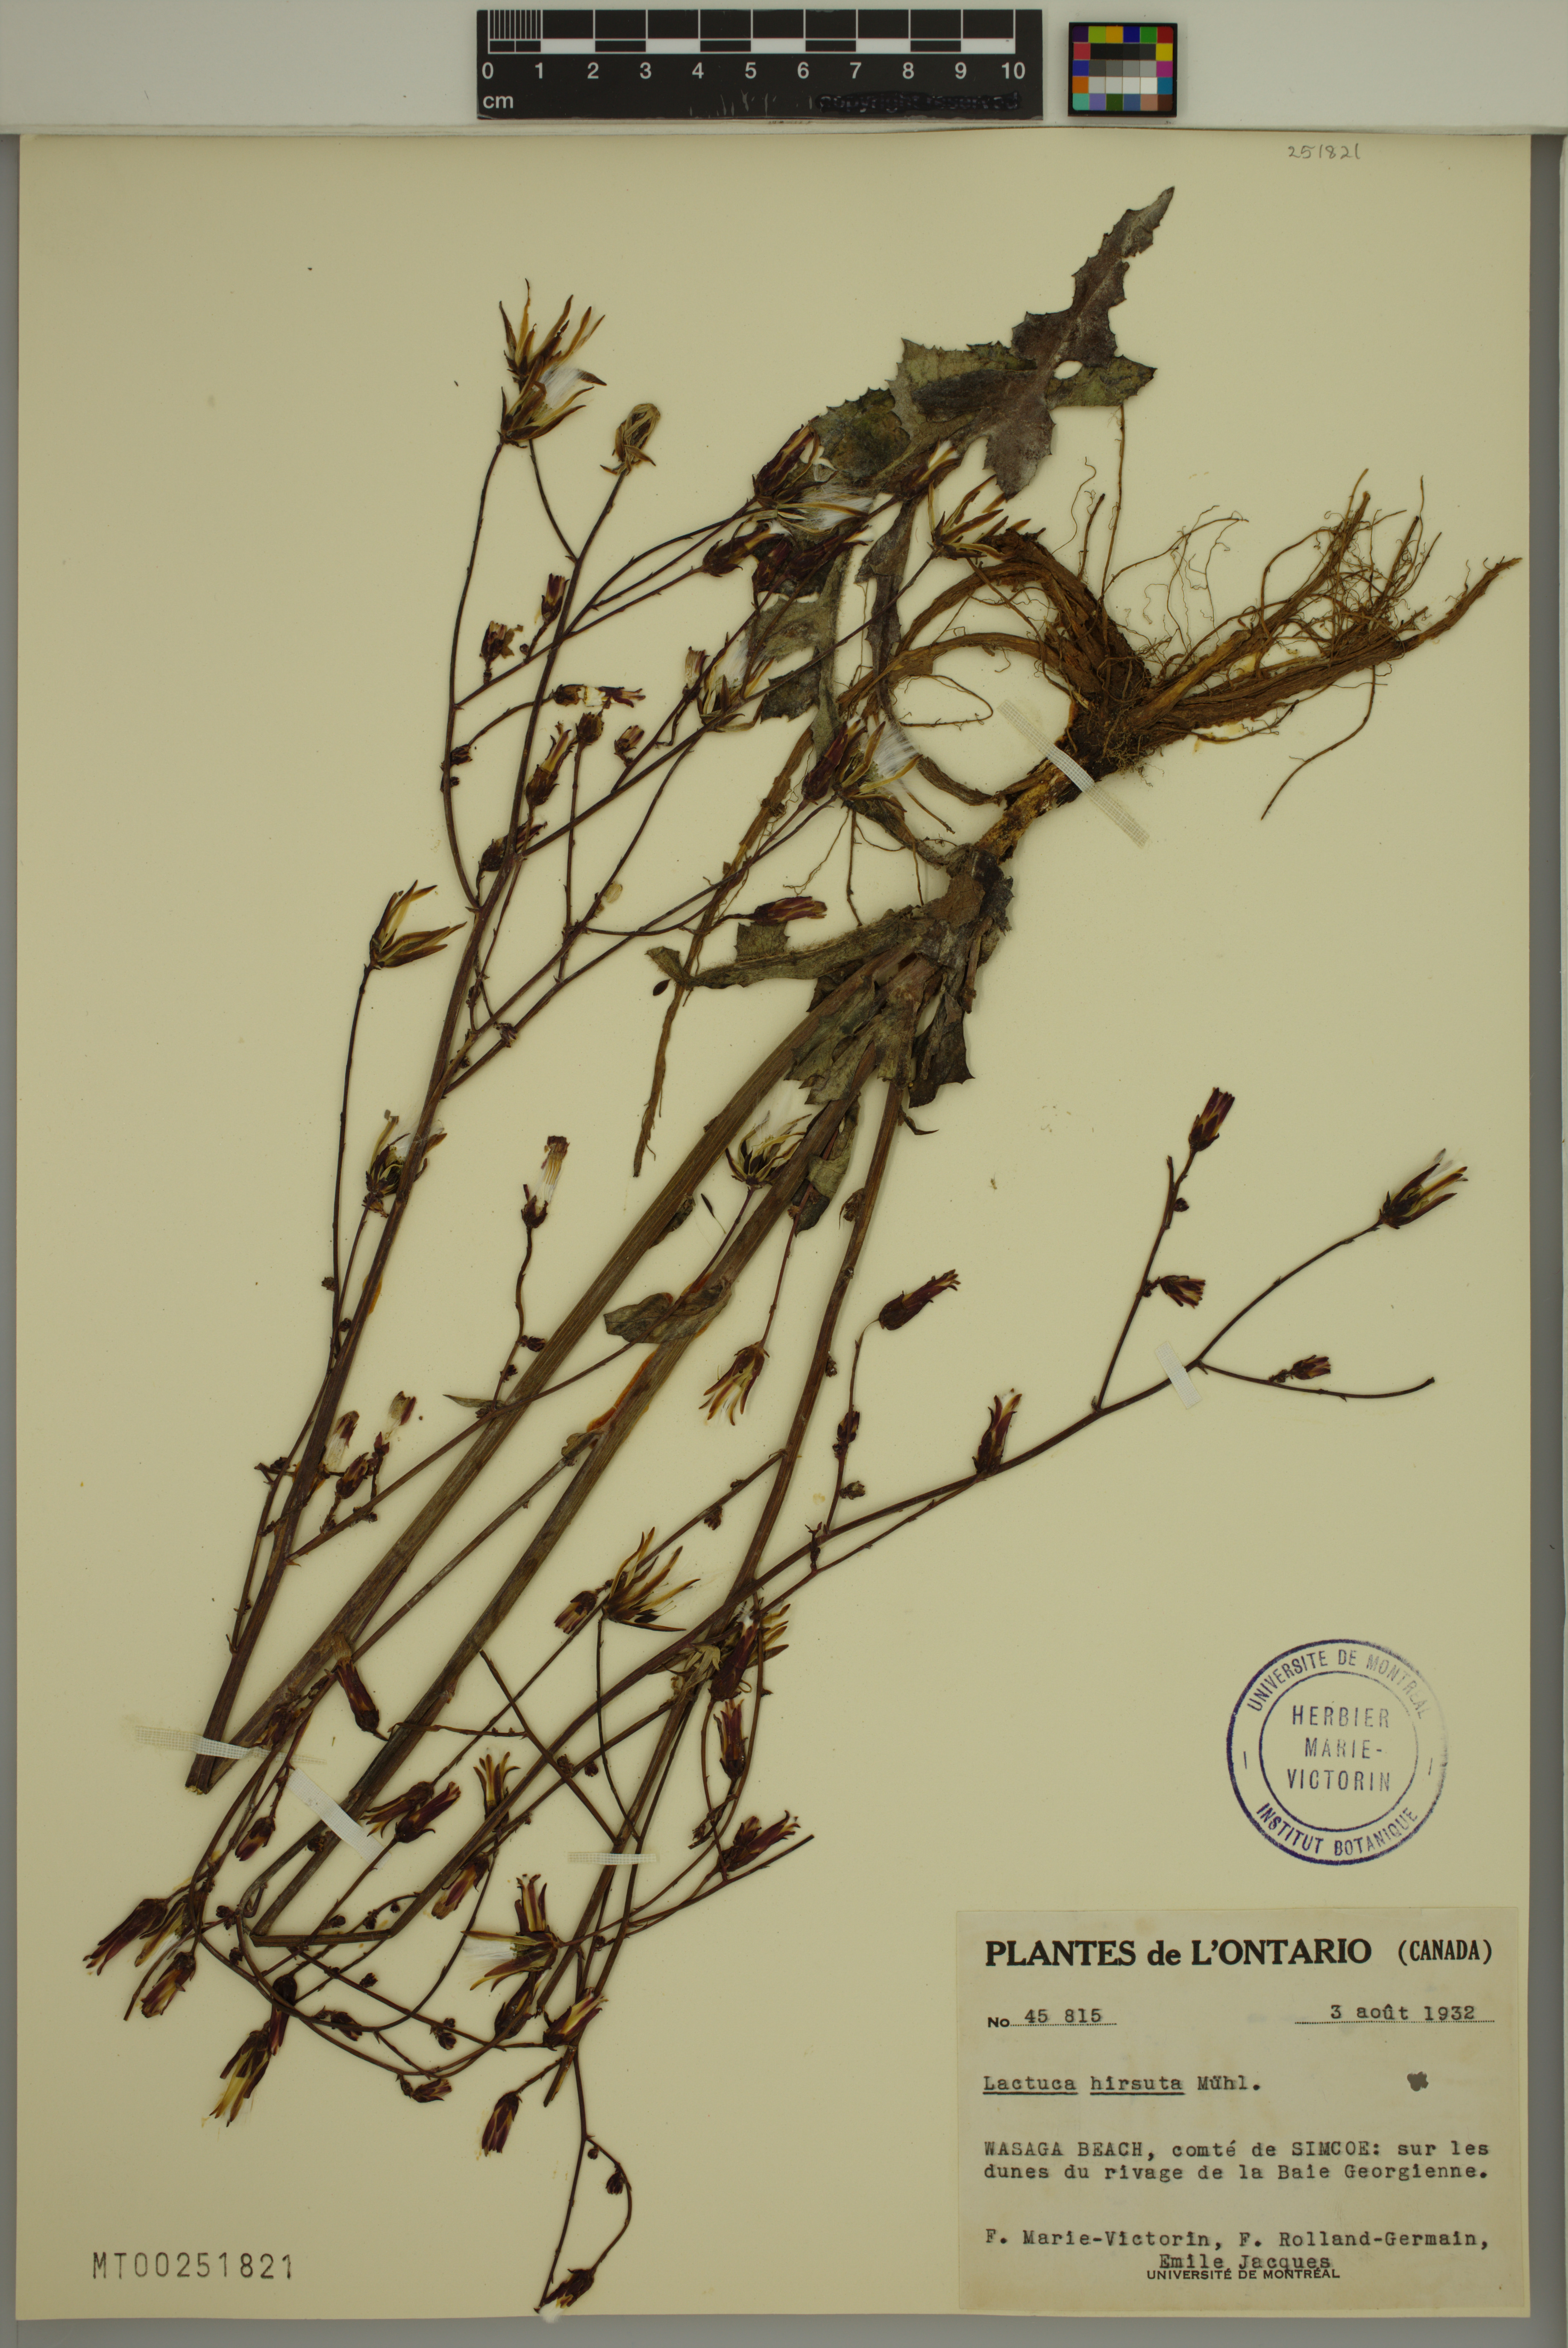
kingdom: Plantae
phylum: Tracheophyta
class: Magnoliopsida
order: Asterales
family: Asteraceae
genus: Lactuca
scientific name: Lactuca hirsuta
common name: Hairy lettuce
